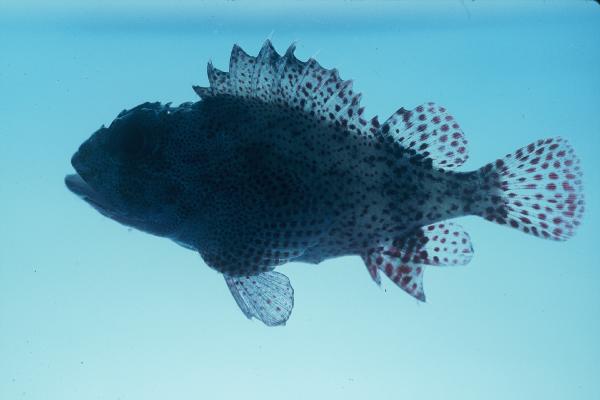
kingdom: Animalia
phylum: Chordata
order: Scorpaeniformes
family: Scorpaenidae
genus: Sebastapistes
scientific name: Sebastapistes tinkhami
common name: Darkspotted scorpionfish
